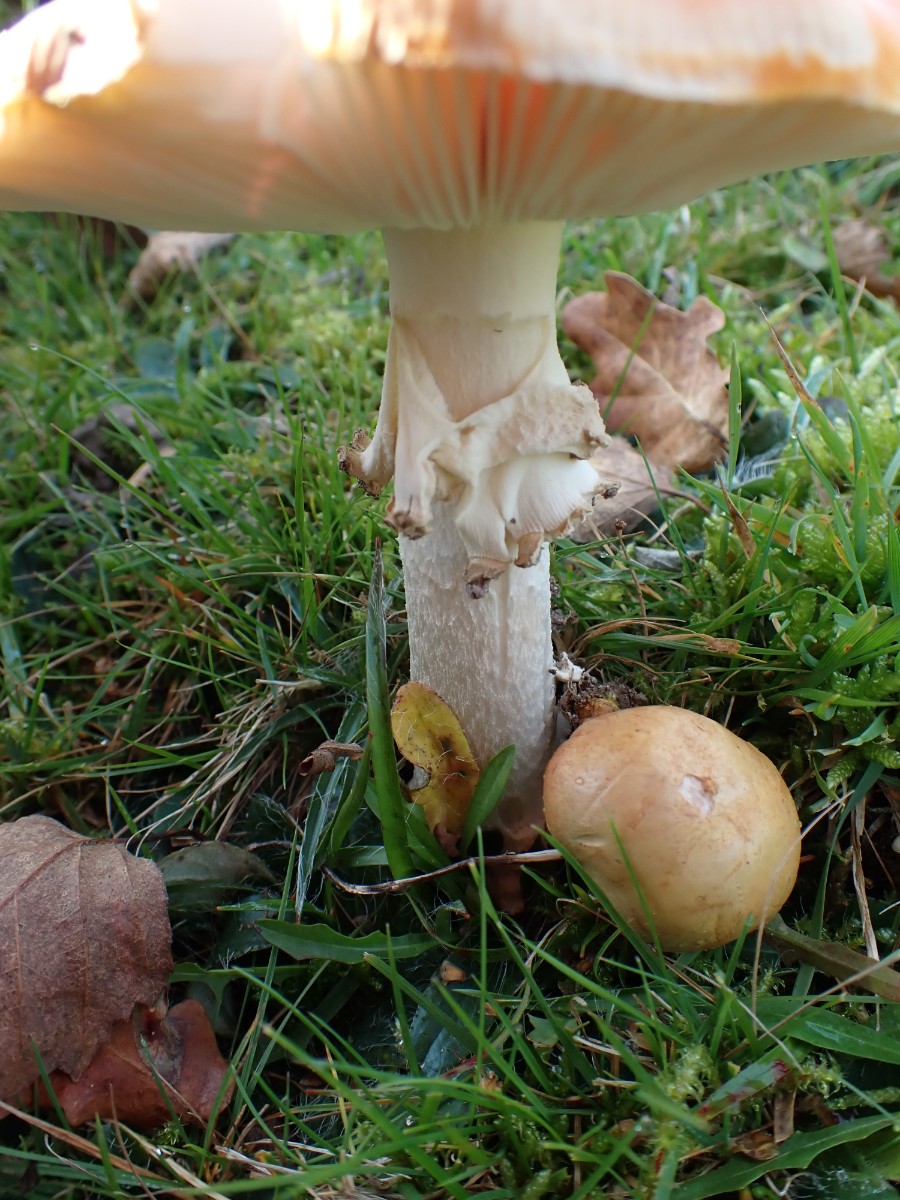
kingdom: Fungi
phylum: Basidiomycota
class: Agaricomycetes
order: Agaricales
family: Amanitaceae
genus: Amanita
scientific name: Amanita muscaria
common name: rød fluesvamp
